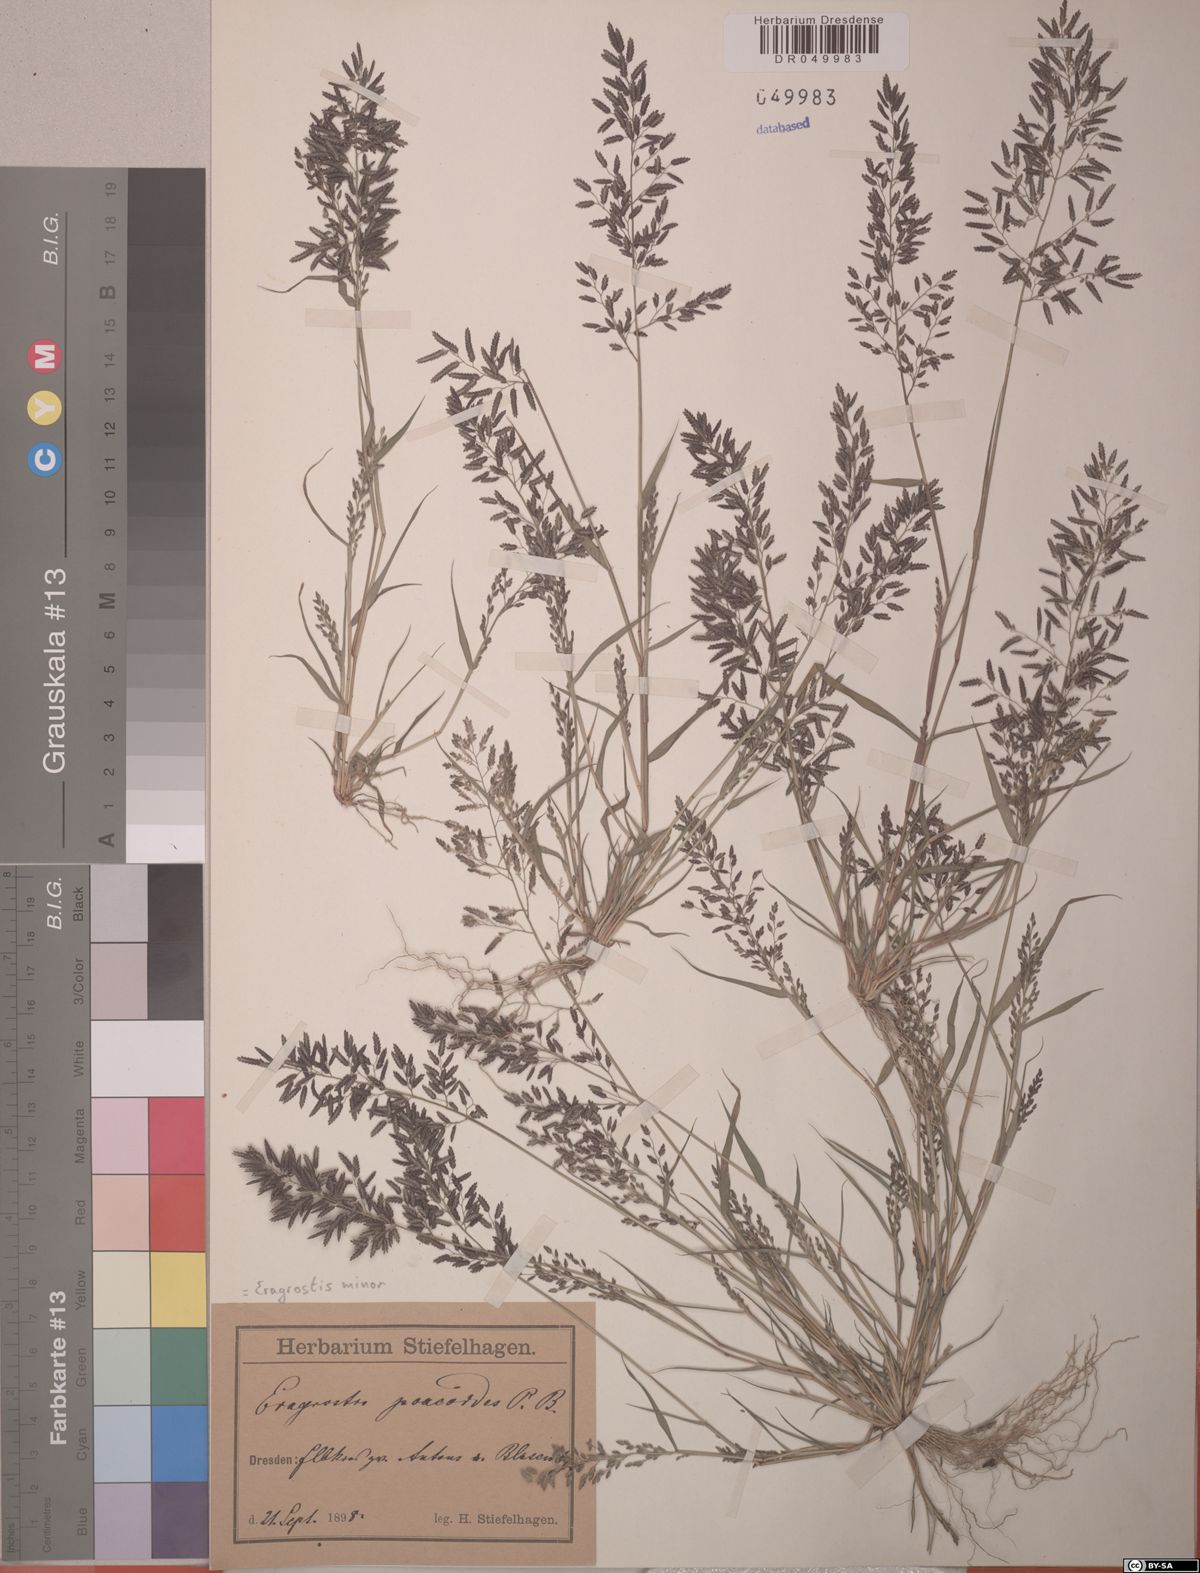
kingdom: Plantae
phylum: Tracheophyta
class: Liliopsida
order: Poales
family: Poaceae
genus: Eragrostis
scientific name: Eragrostis minor
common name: Small love-grass
